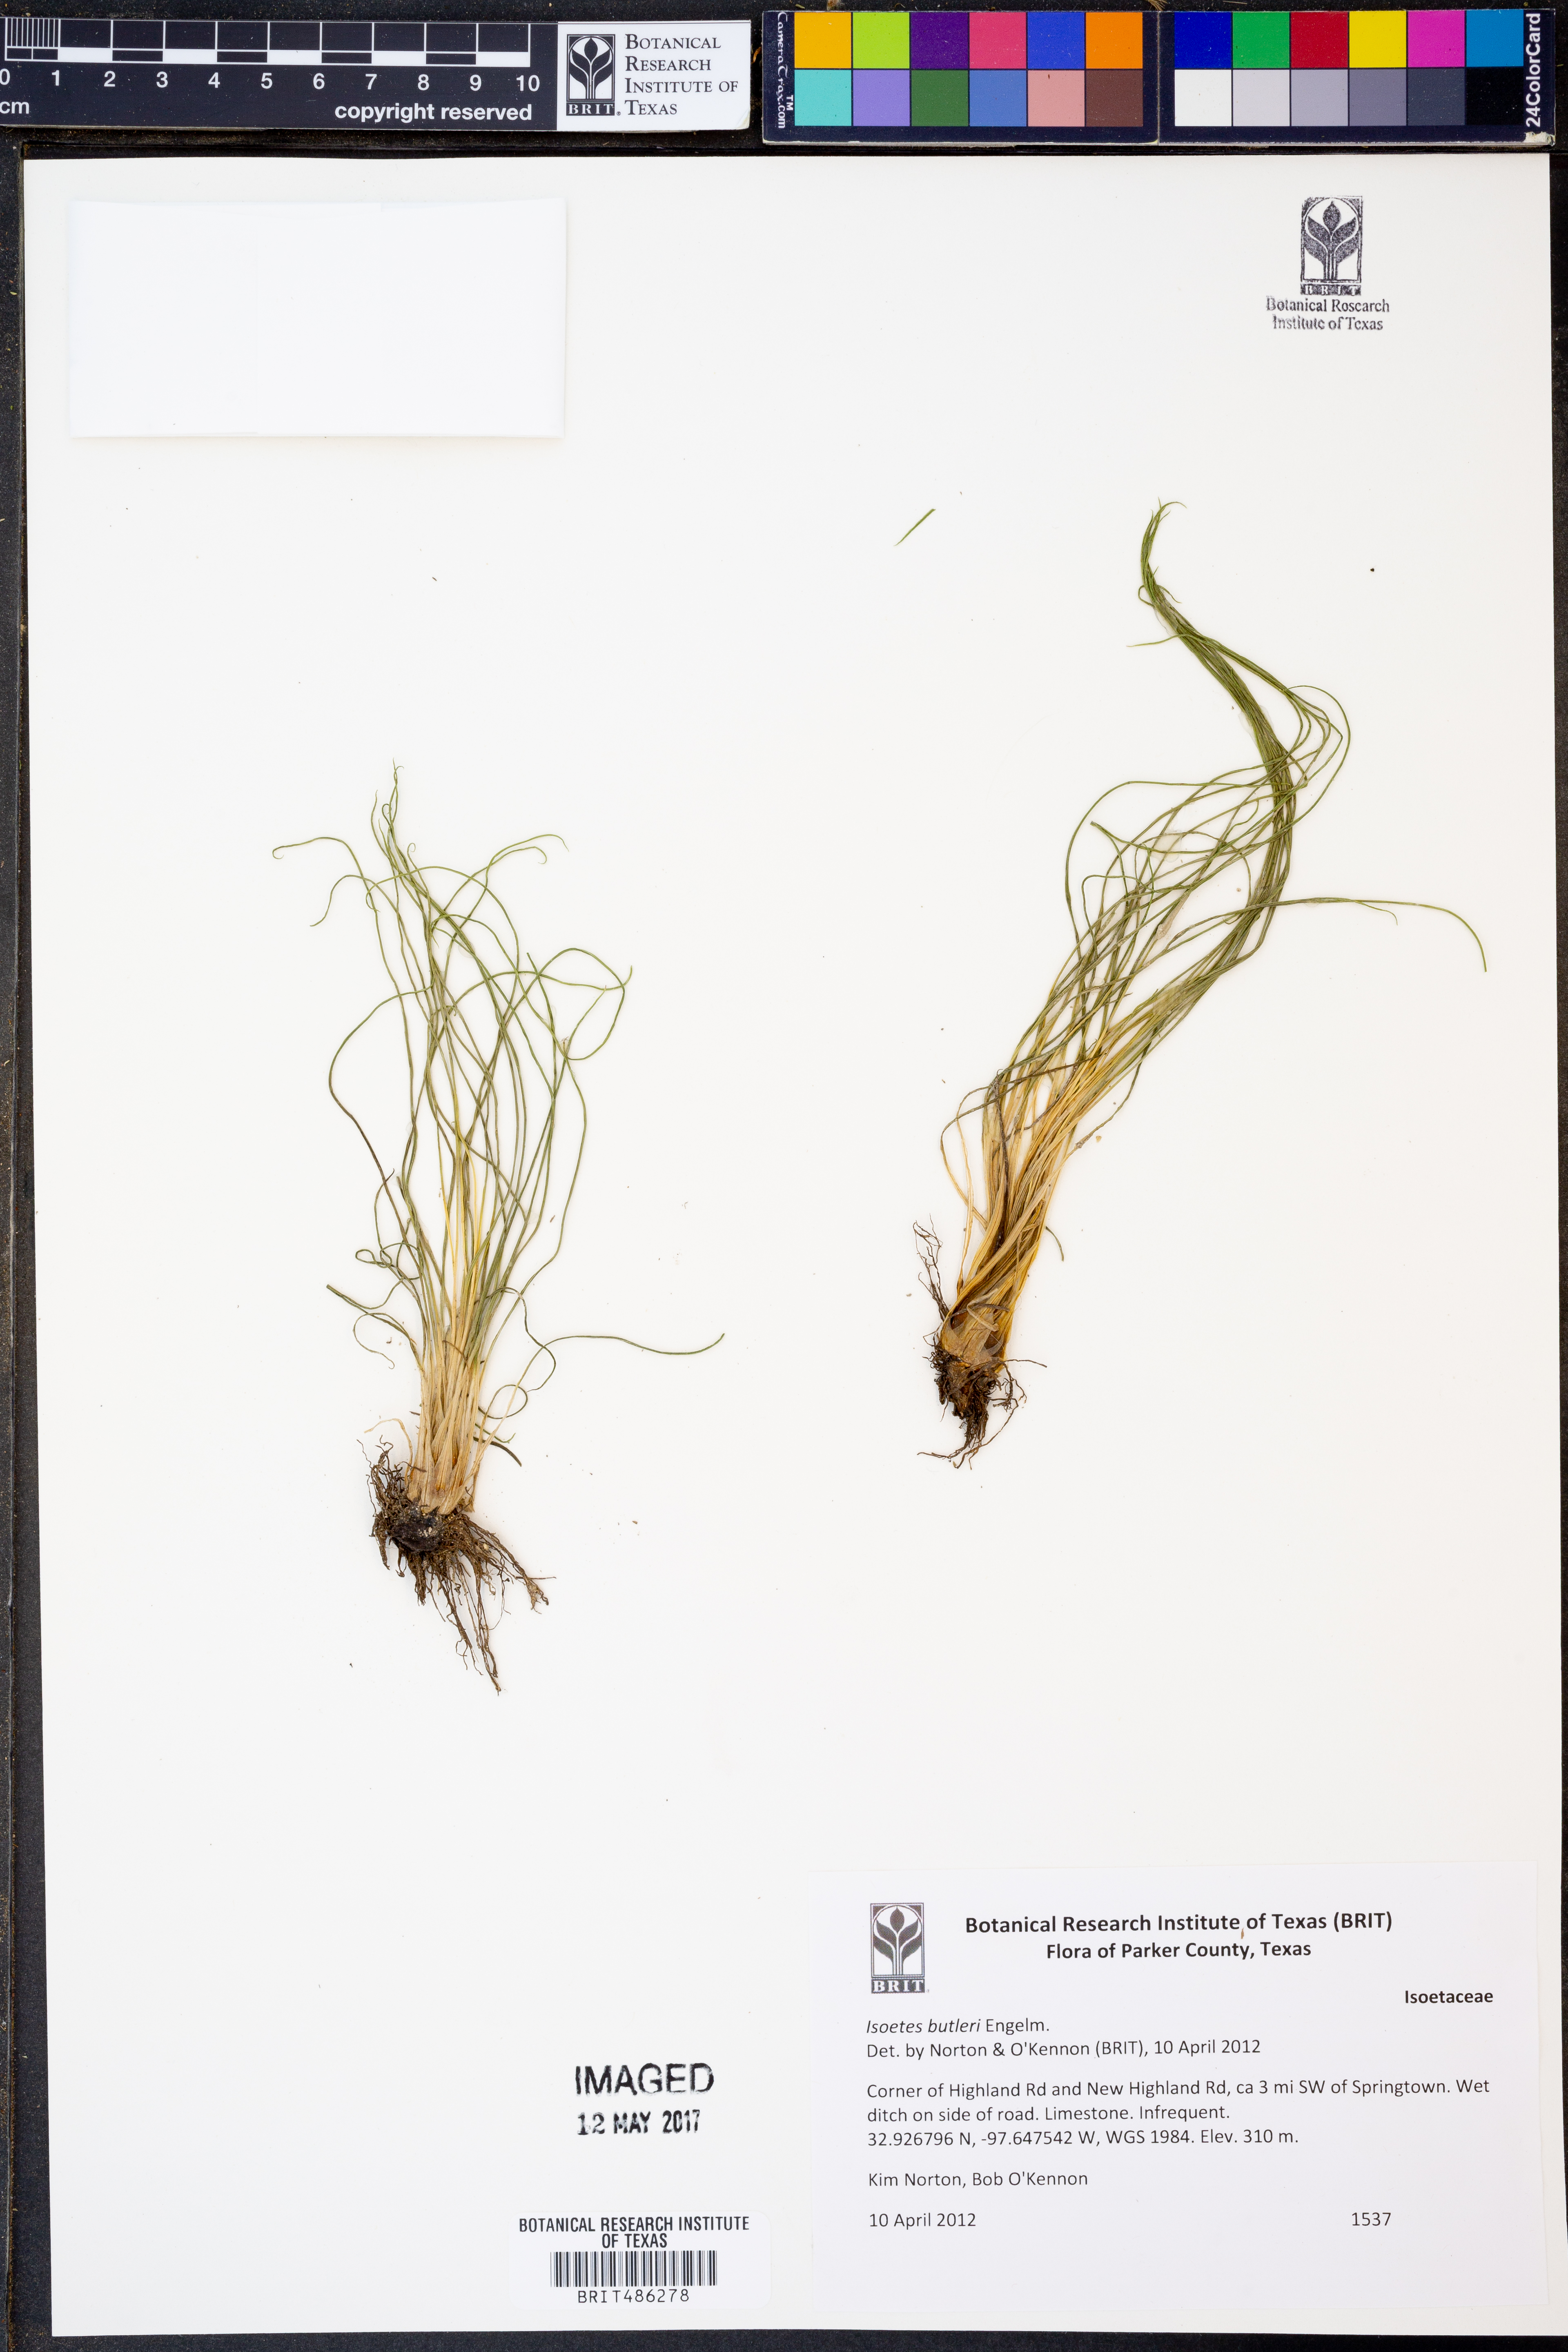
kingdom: Plantae
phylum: Tracheophyta
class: Lycopodiopsida
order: Isoetales
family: Isoetaceae
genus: Isoetes
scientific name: Isoetes butleri
